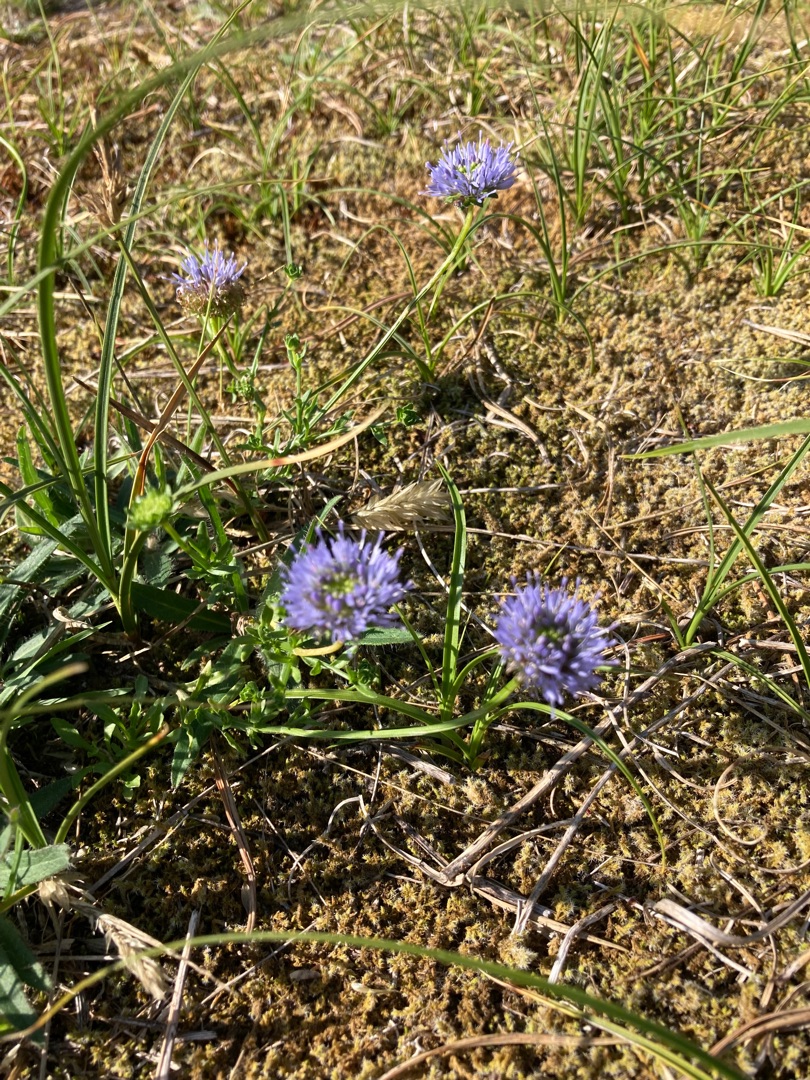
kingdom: Plantae
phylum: Tracheophyta
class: Magnoliopsida
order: Asterales
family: Campanulaceae
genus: Jasione
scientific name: Jasione montana
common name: Blåmunke
